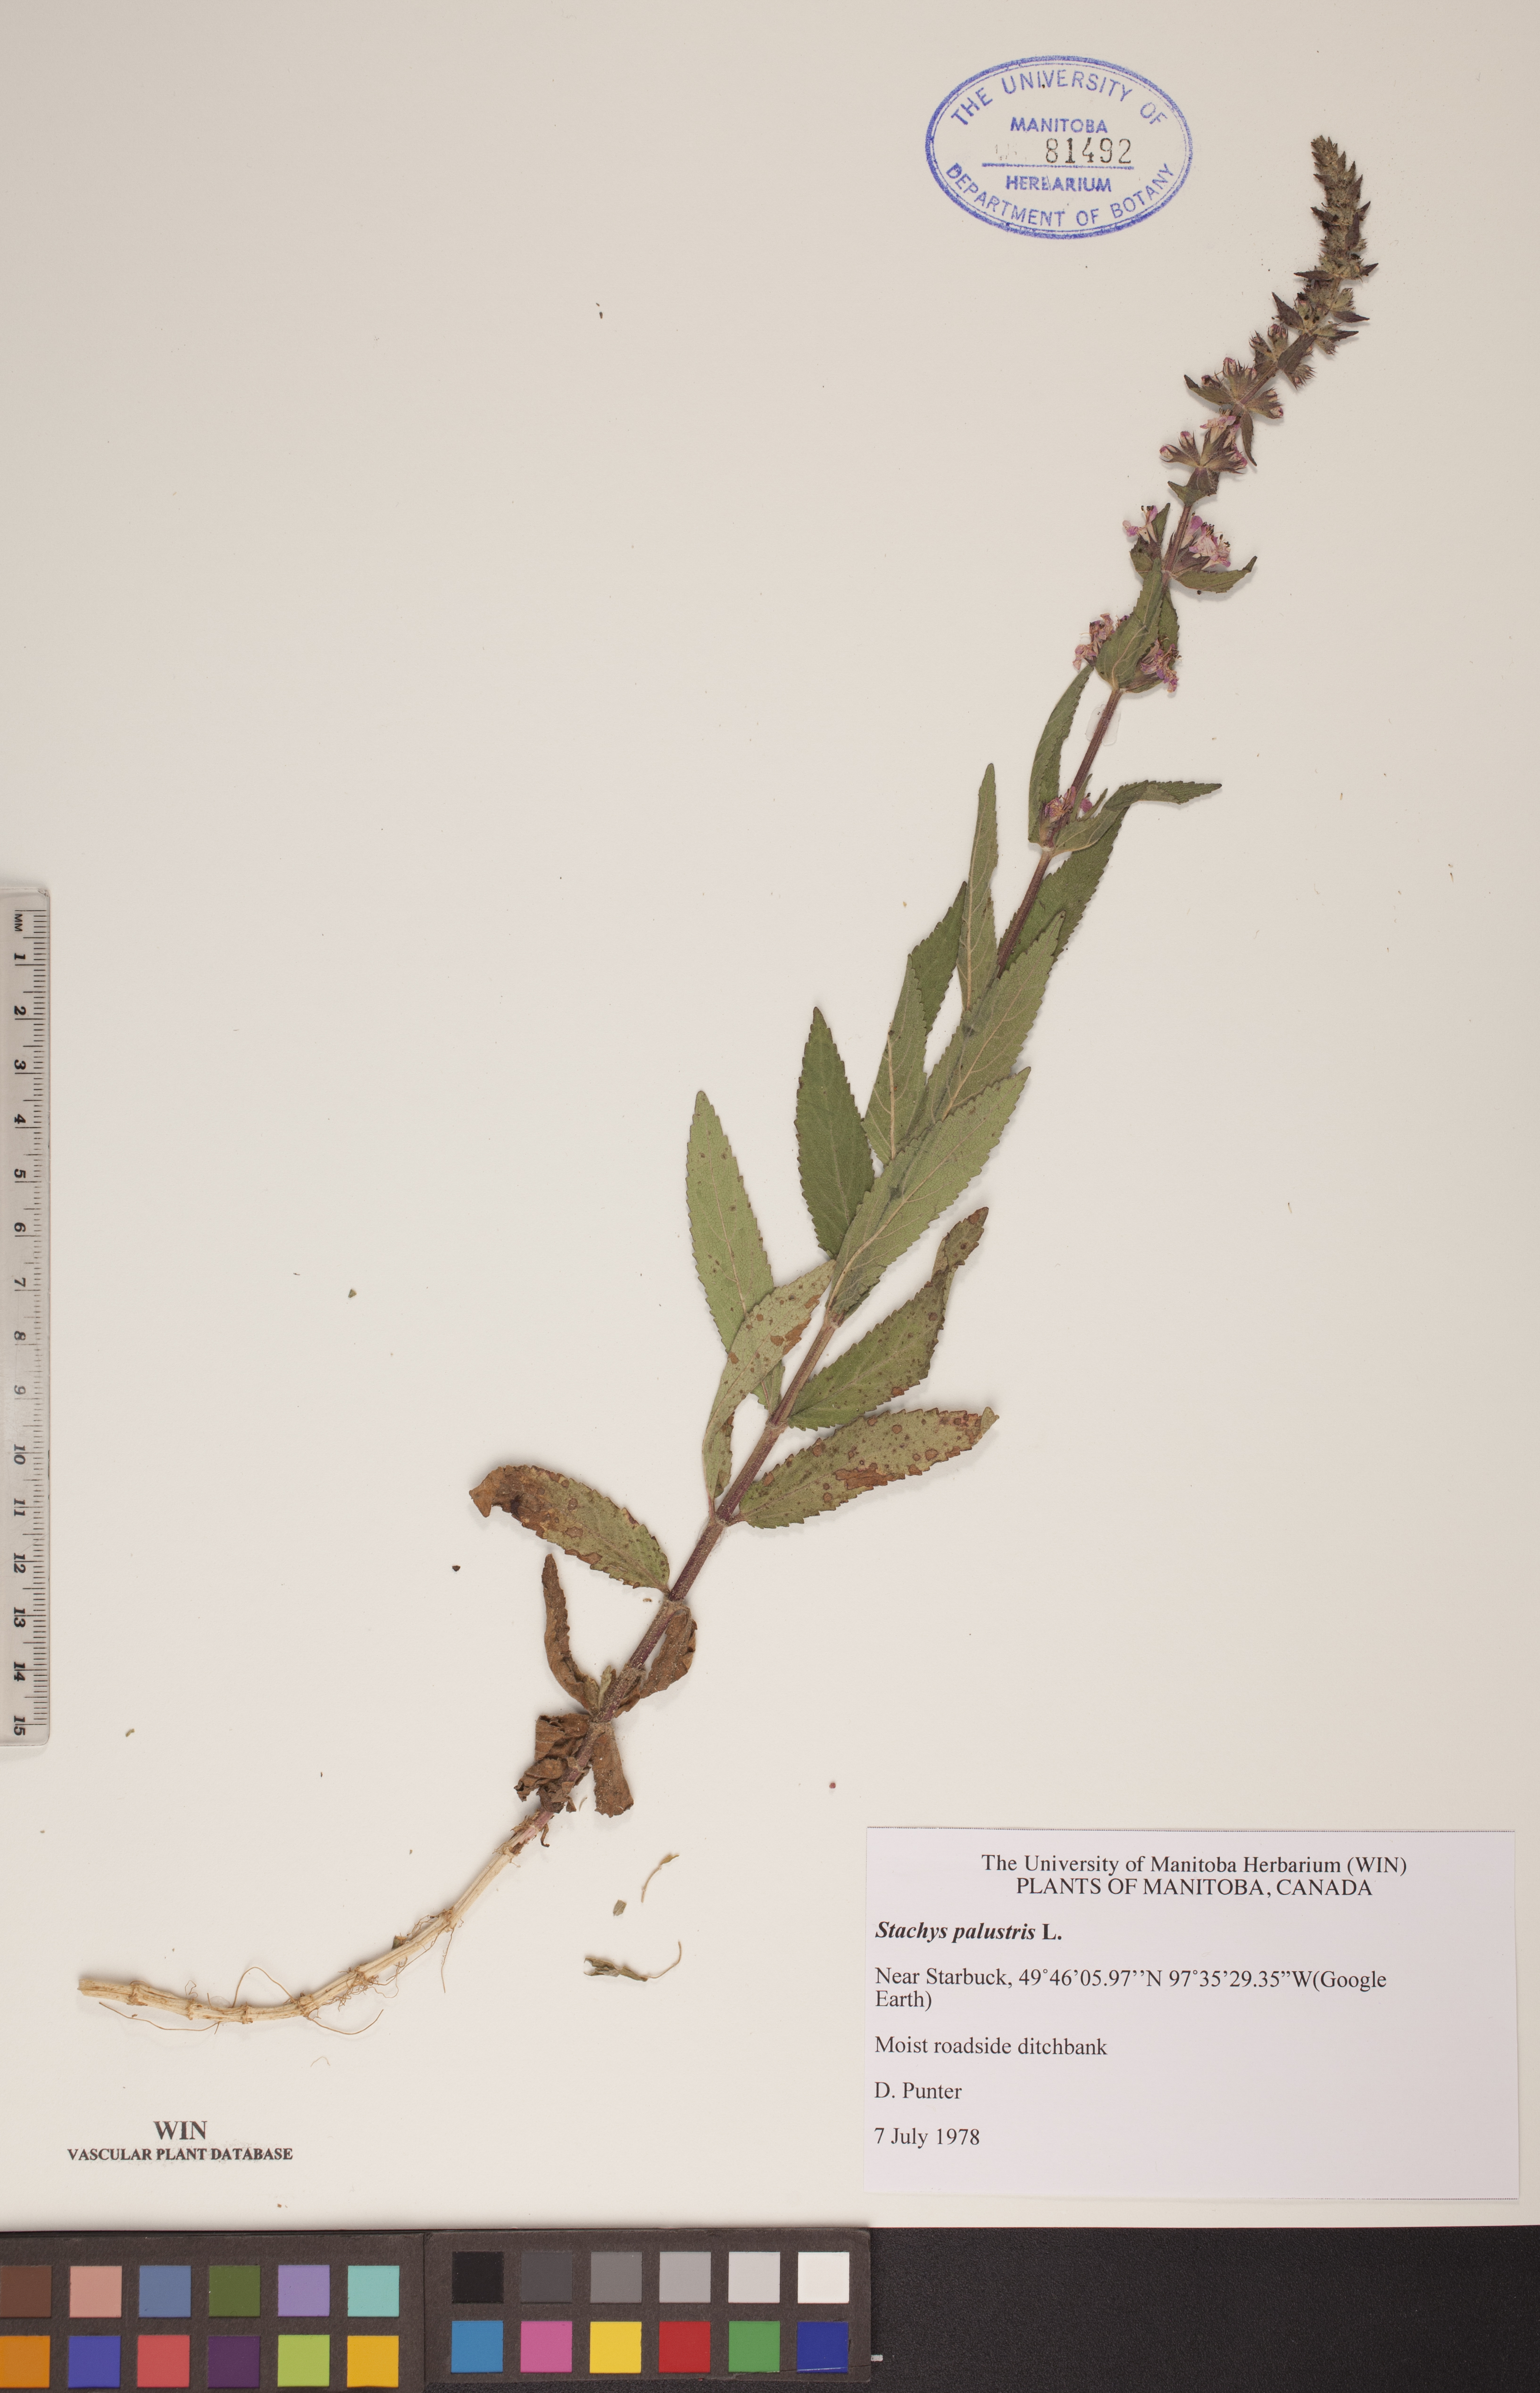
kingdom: Plantae
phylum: Tracheophyta
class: Magnoliopsida
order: Lamiales
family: Lamiaceae
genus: Stachys
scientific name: Stachys palustris
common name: Marsh woundwort
